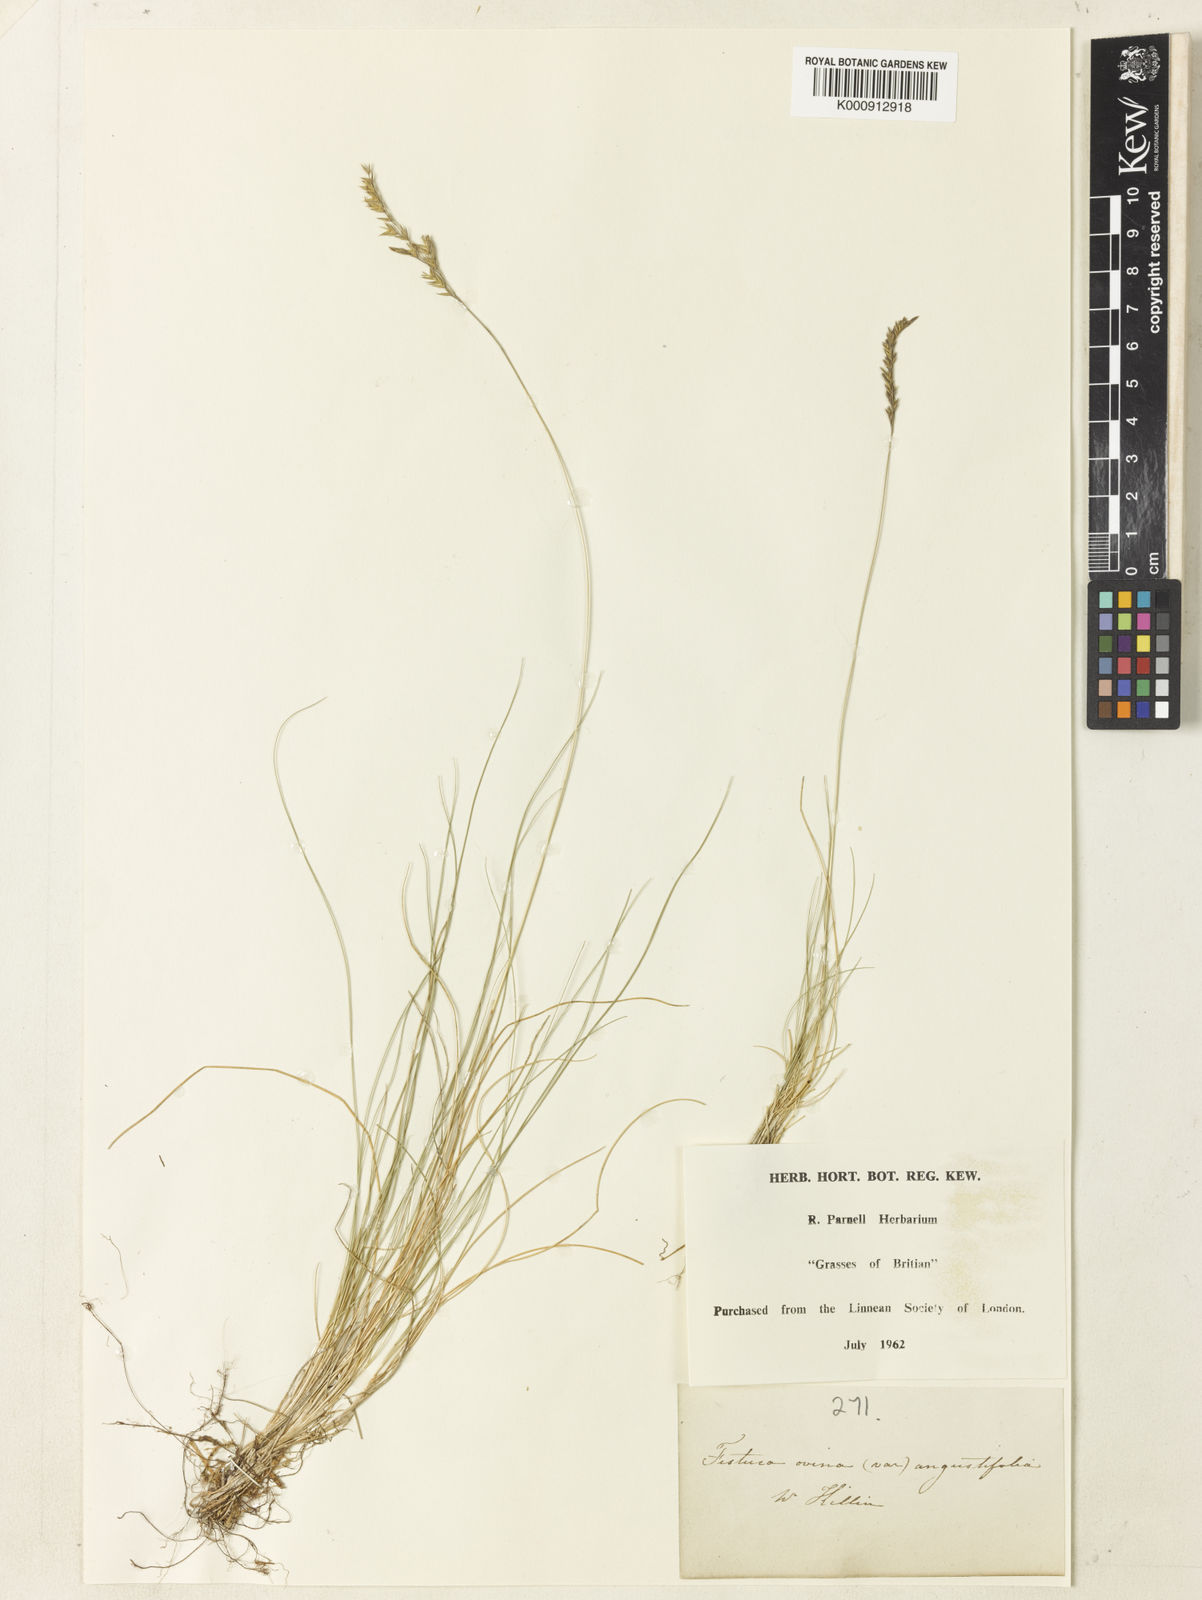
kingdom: Plantae
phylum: Tracheophyta
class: Liliopsida
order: Poales
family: Poaceae
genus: Tripogon
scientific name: Tripogon filiformis
